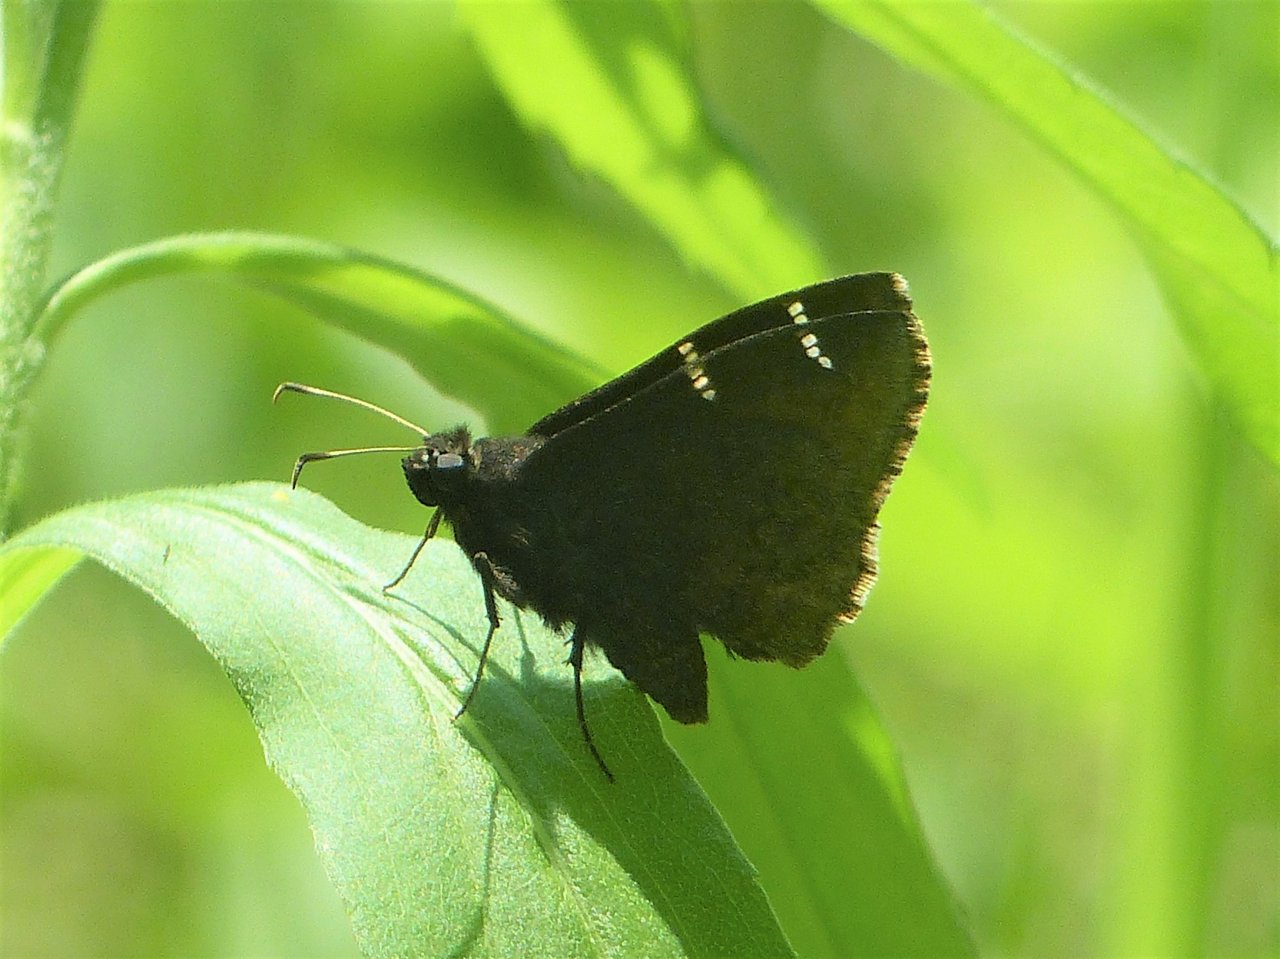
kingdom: Animalia
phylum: Arthropoda
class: Insecta
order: Lepidoptera
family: Hesperiidae
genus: Autochton
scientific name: Autochton
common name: Northern Cloudywing
